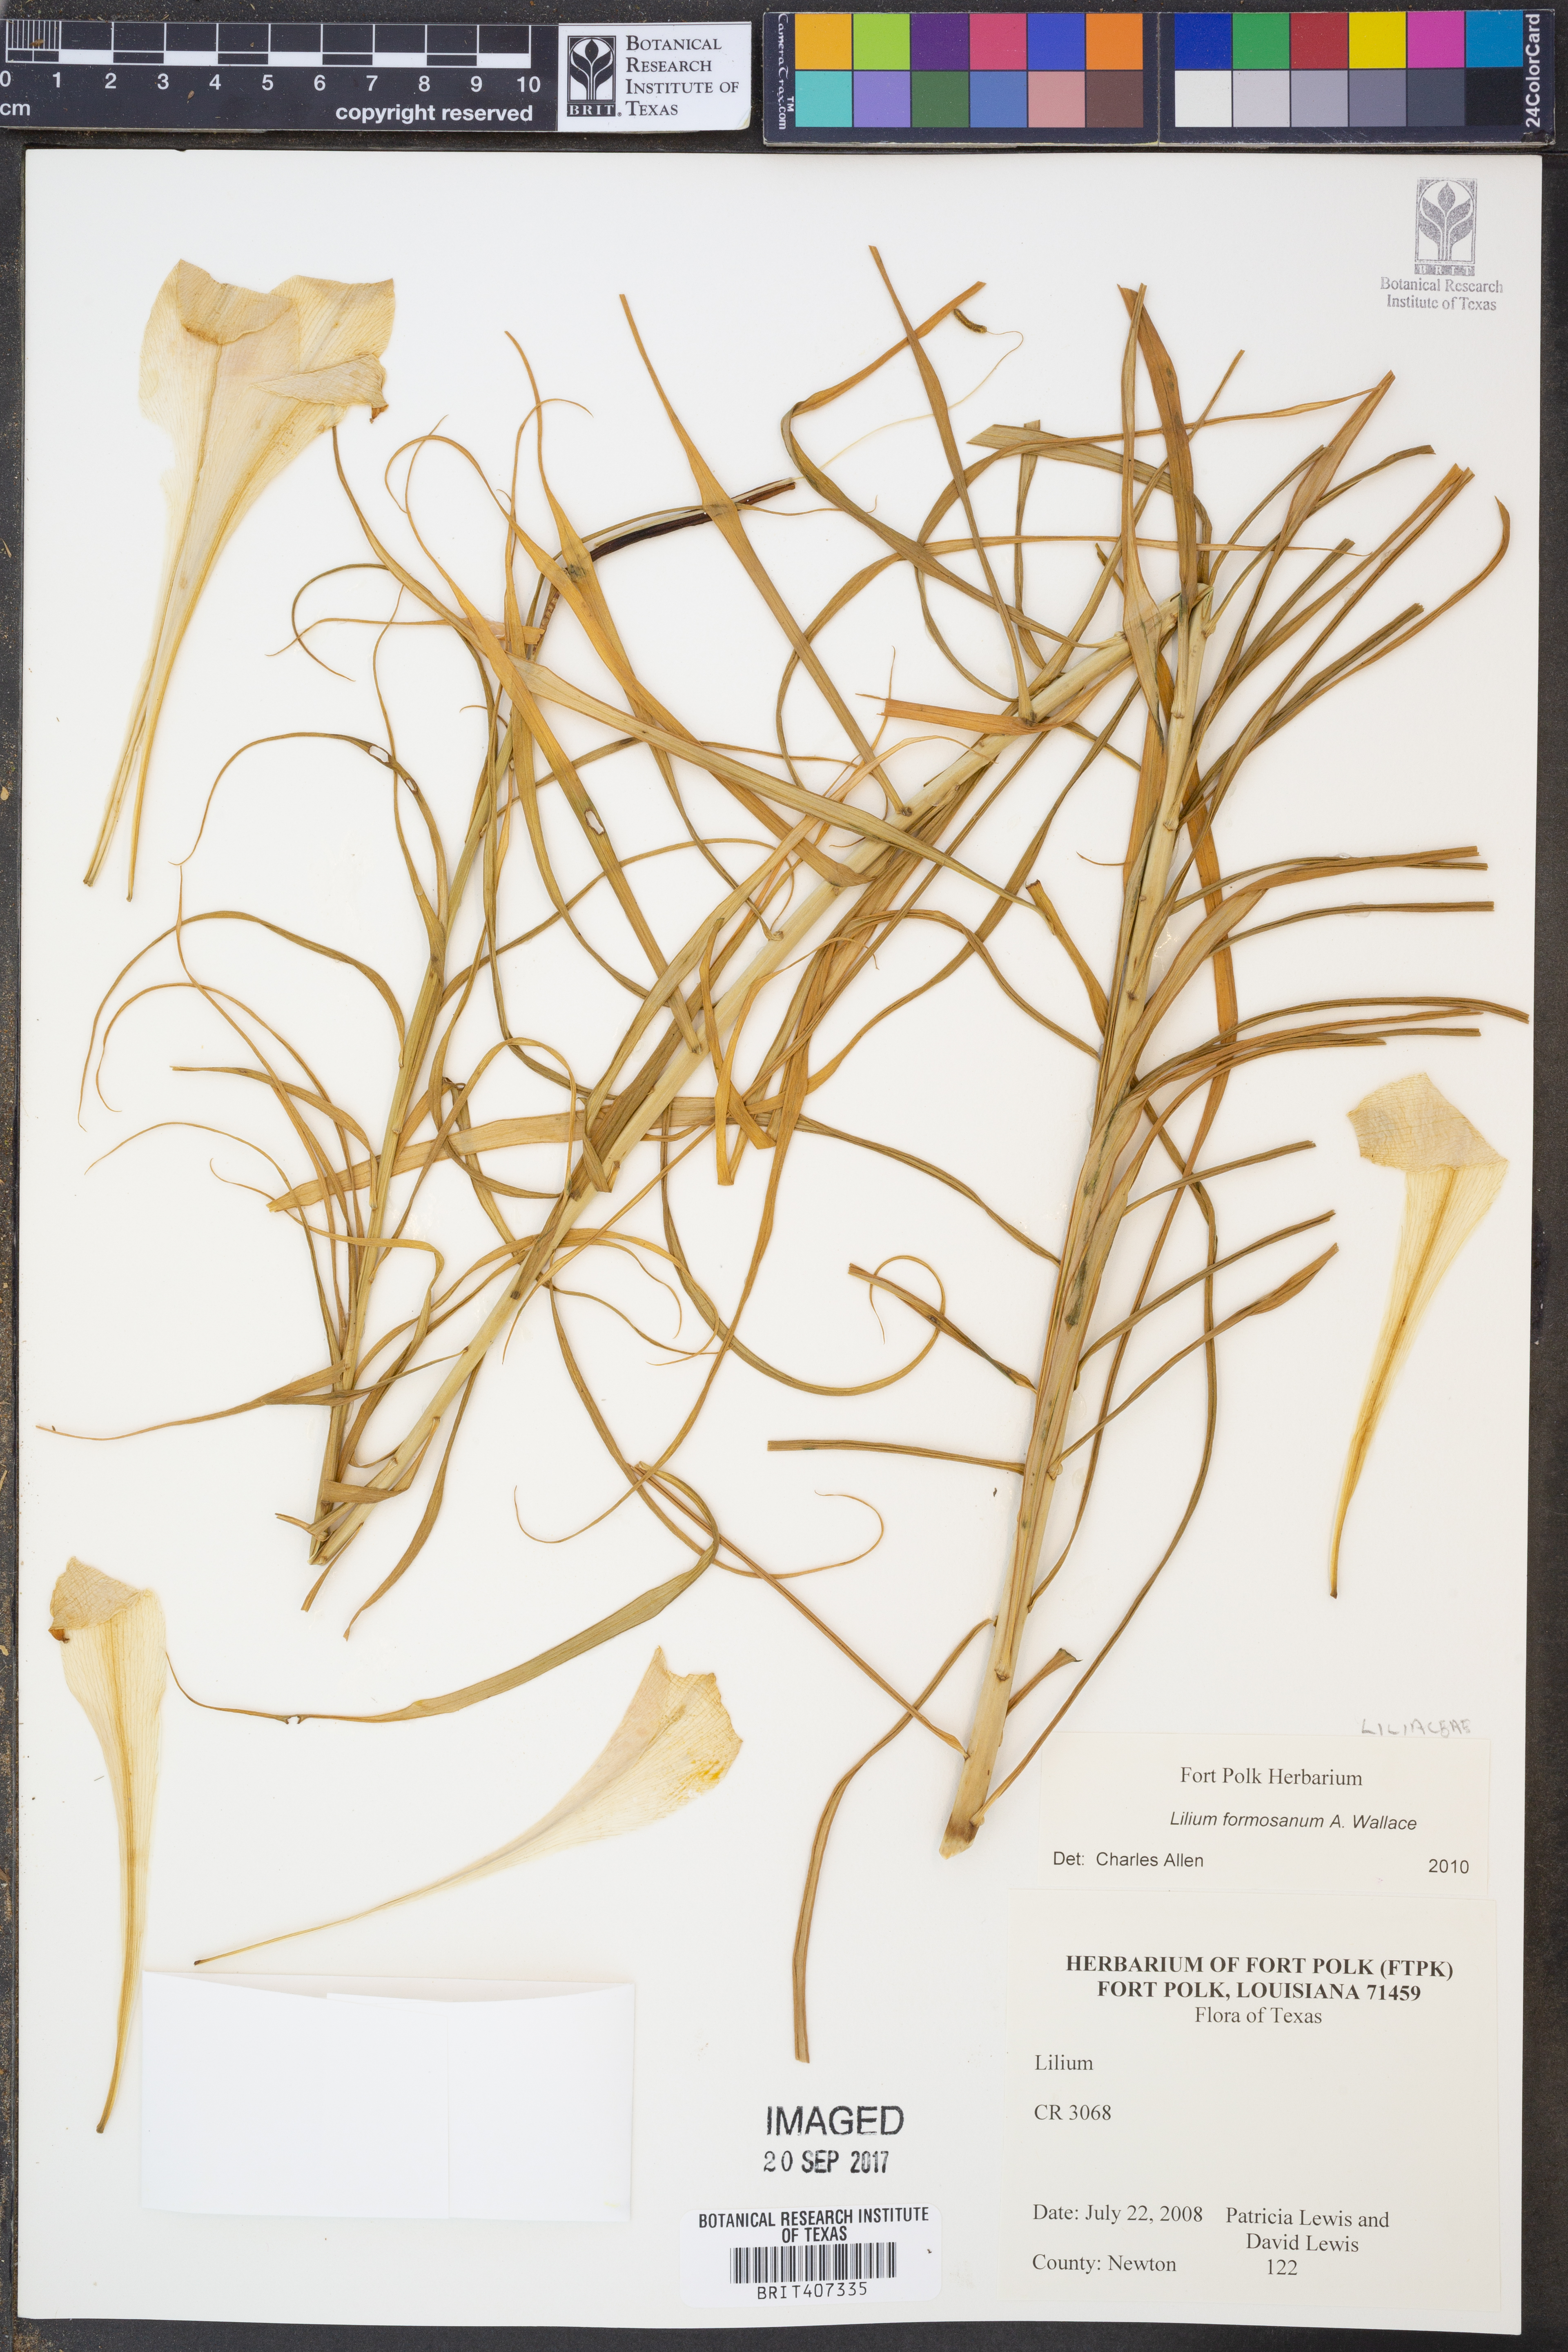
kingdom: Plantae
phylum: Tracheophyta
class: Liliopsida
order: Liliales
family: Liliaceae
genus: Lilium
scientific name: Lilium formosanum
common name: Formosa lily
